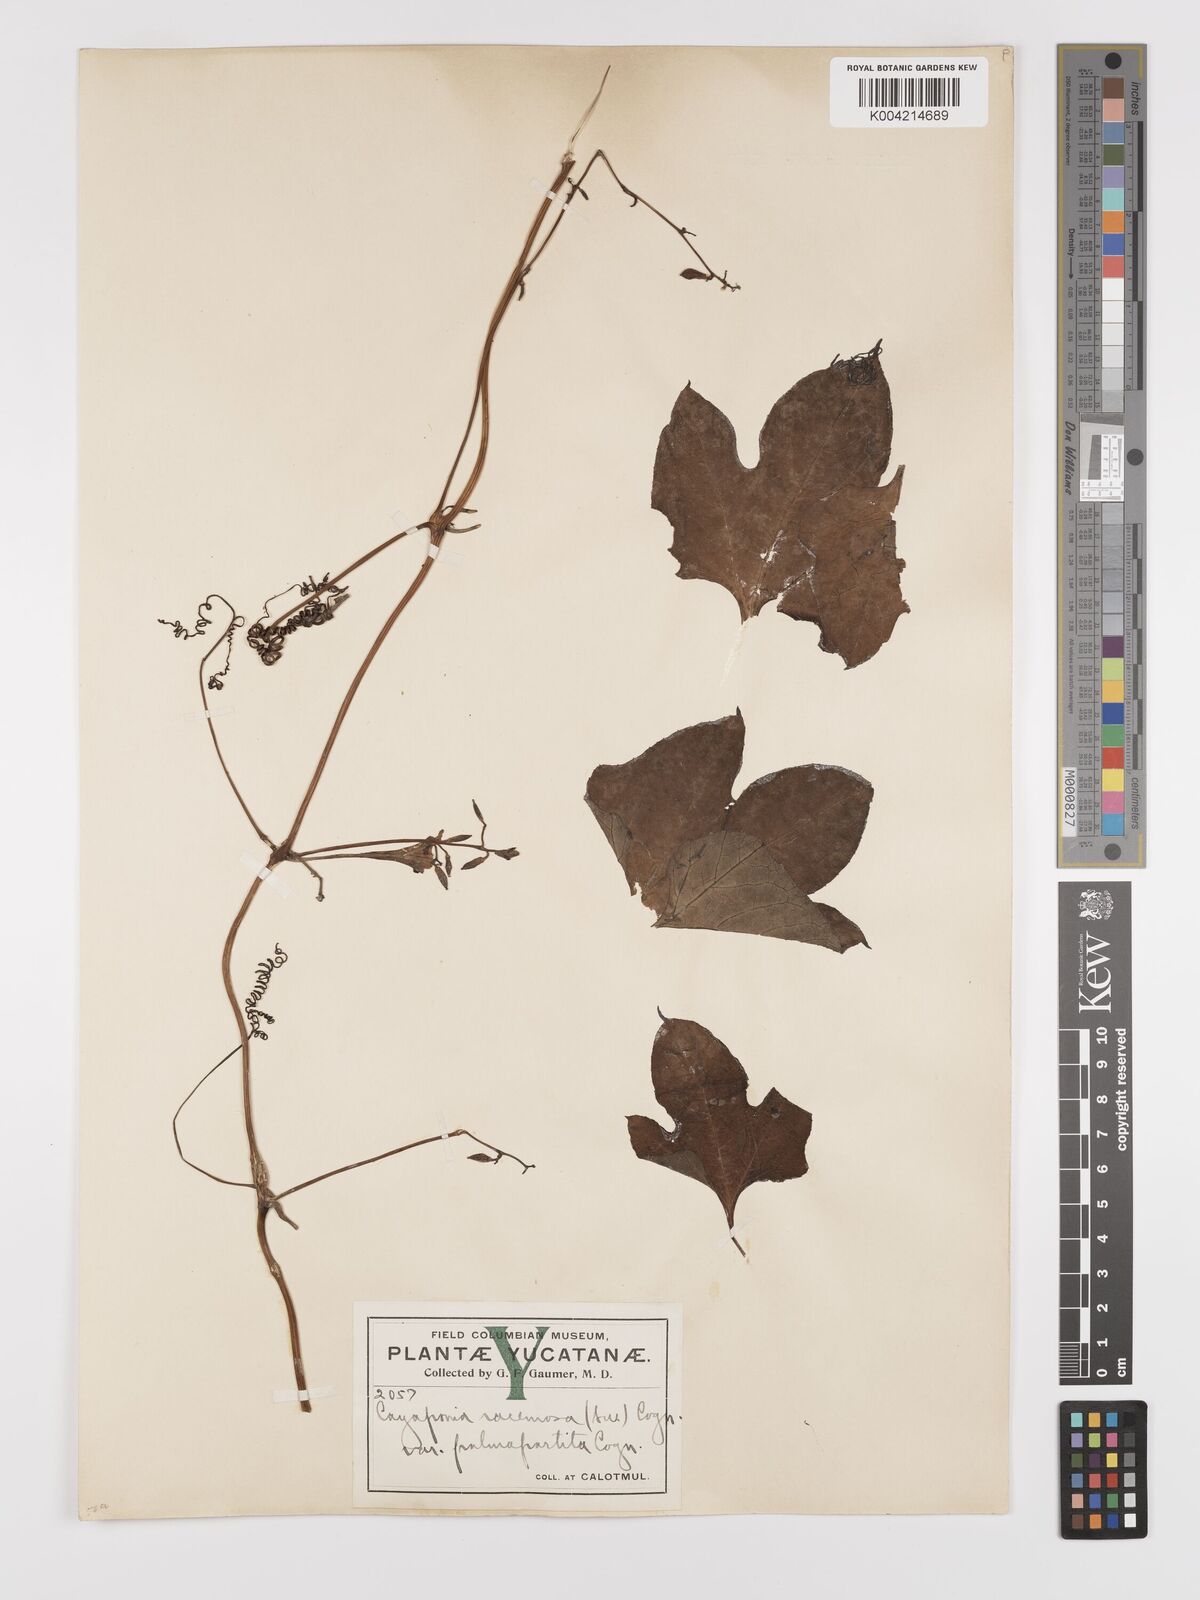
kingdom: Plantae
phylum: Tracheophyta
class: Magnoliopsida
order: Cucurbitales
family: Cucurbitaceae
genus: Cayaponia
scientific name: Cayaponia racemosa
